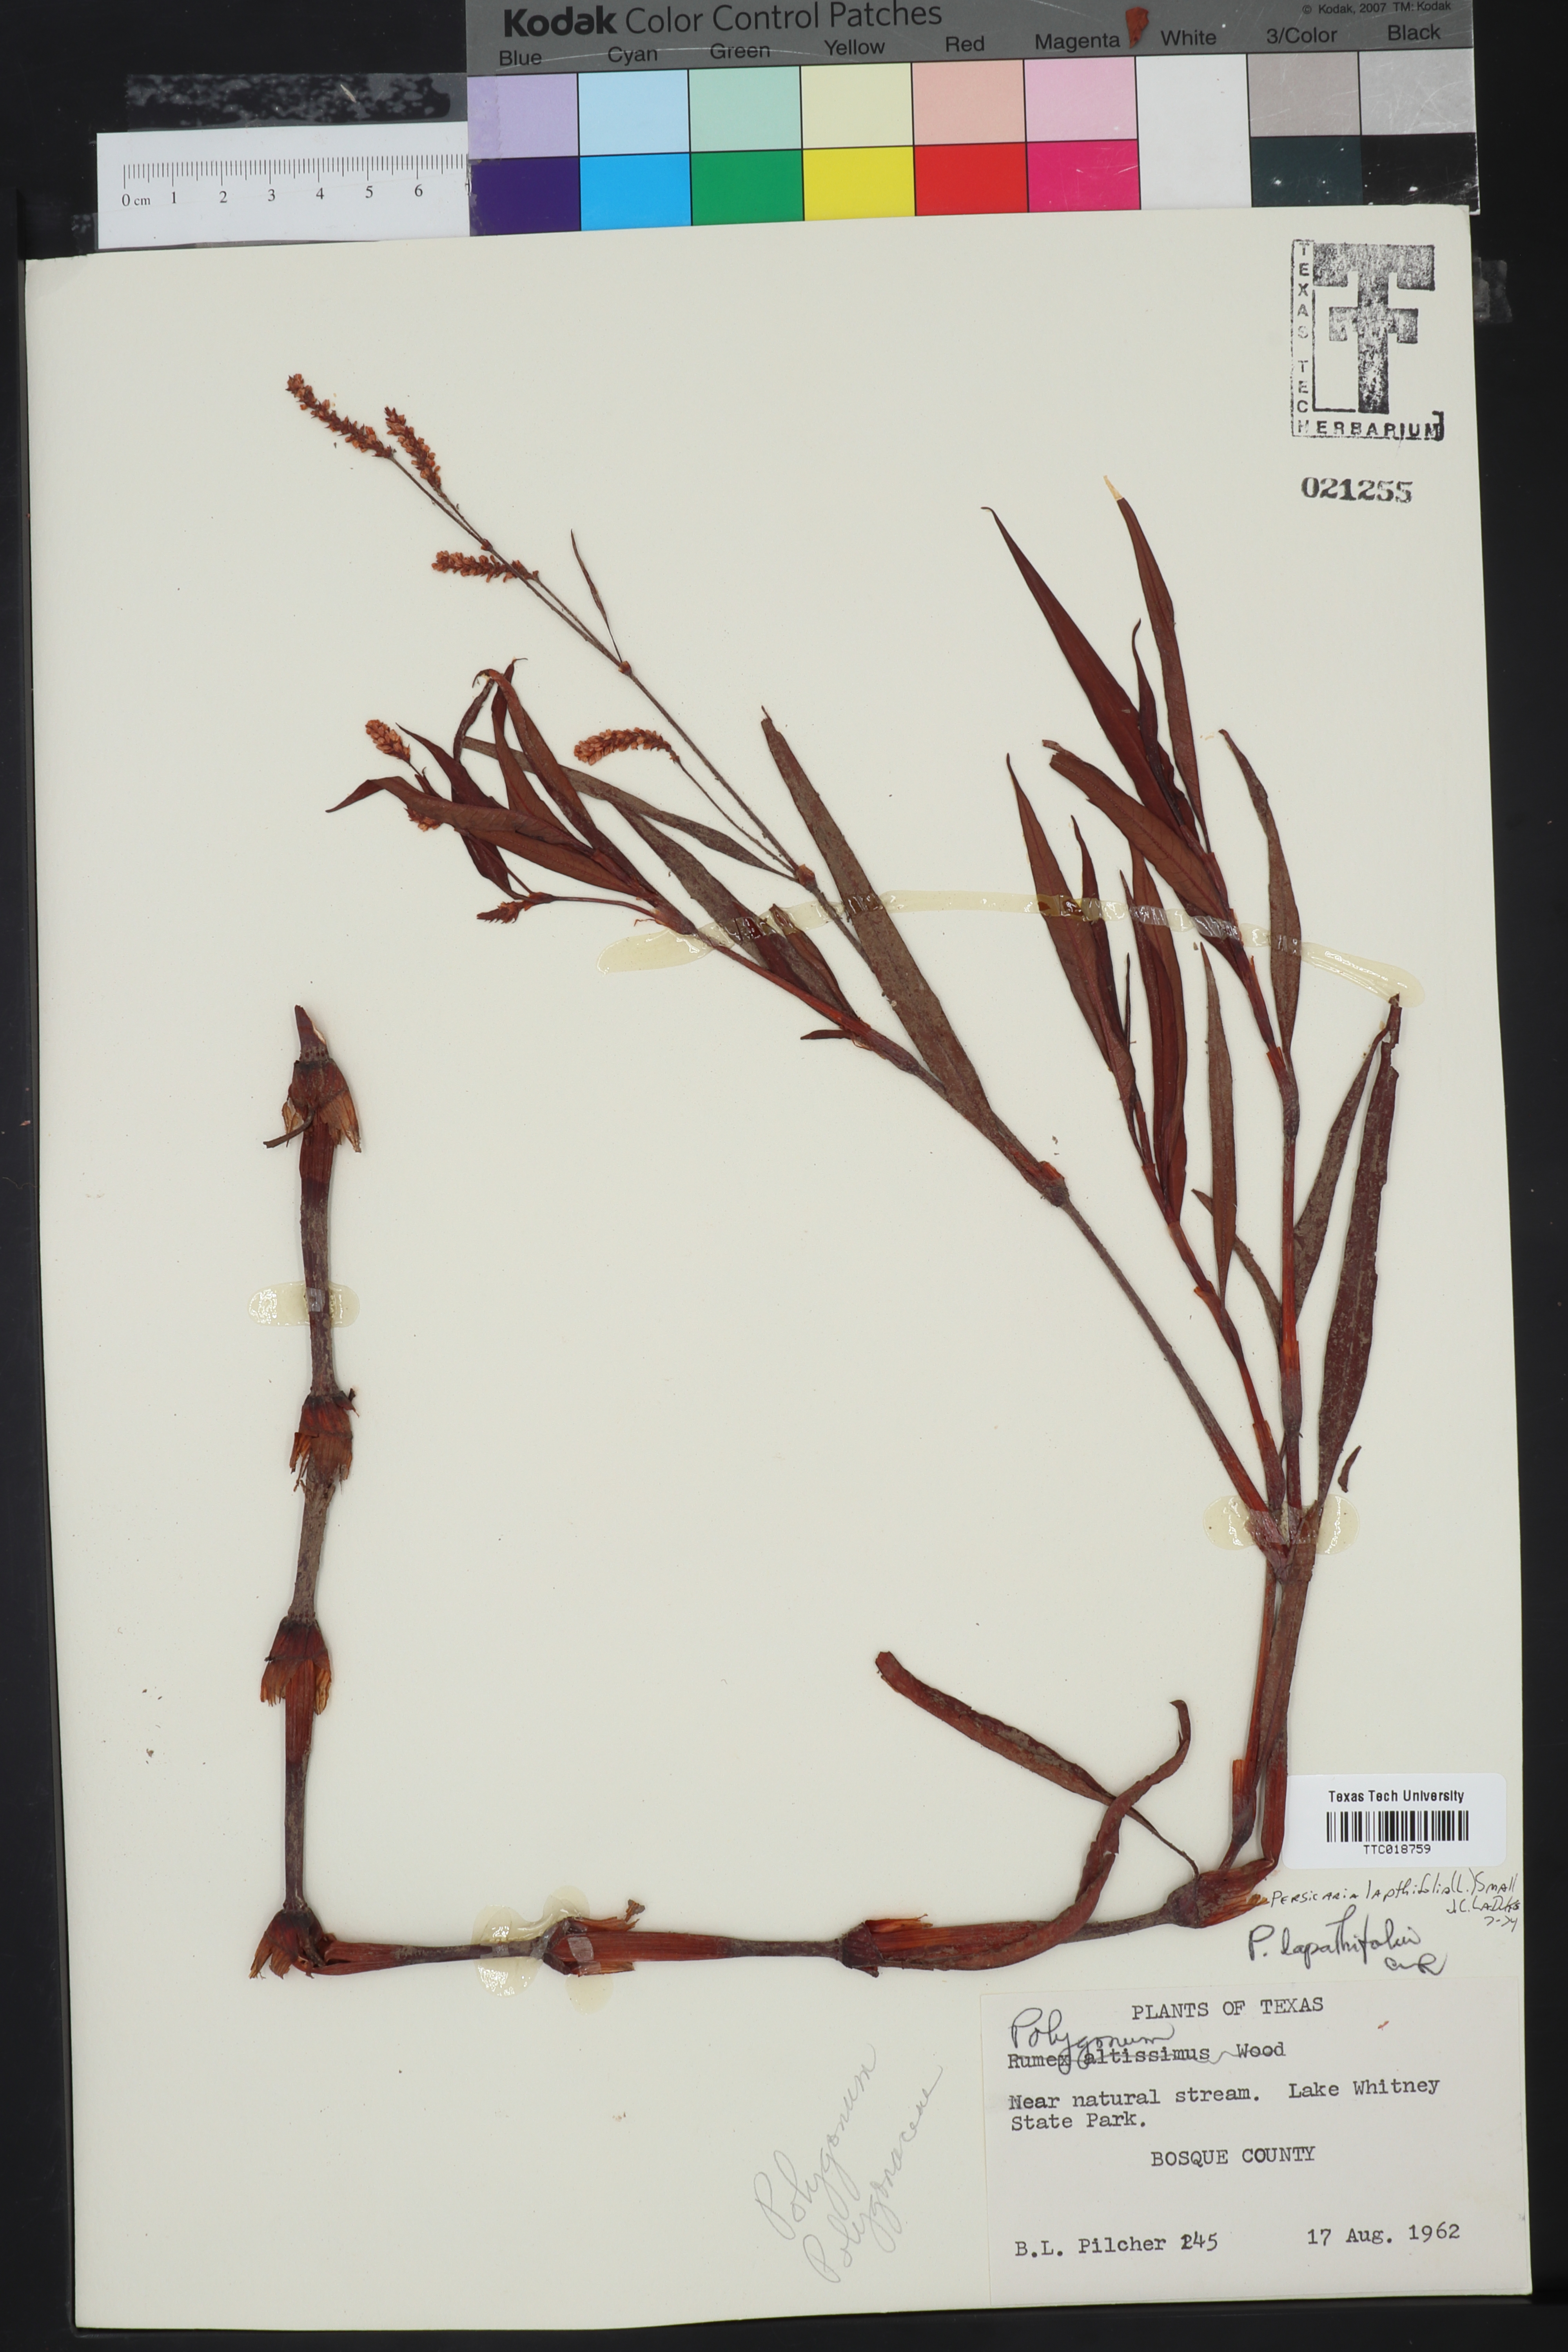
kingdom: Plantae
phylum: Tracheophyta
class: Magnoliopsida
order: Caryophyllales
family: Polygonaceae
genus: Persicaria
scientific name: Persicaria lapathifolia
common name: Curlytop knotweed
